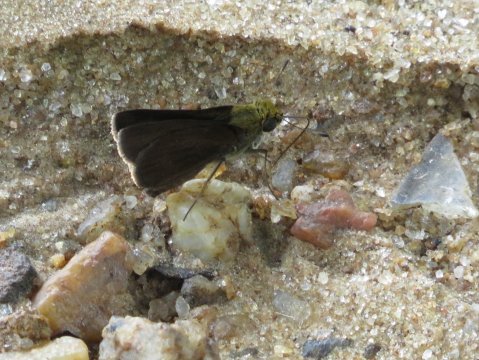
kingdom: Animalia
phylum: Arthropoda
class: Insecta
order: Lepidoptera
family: Hesperiidae
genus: Euphyes
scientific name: Euphyes vestris
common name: Dun Skipper
